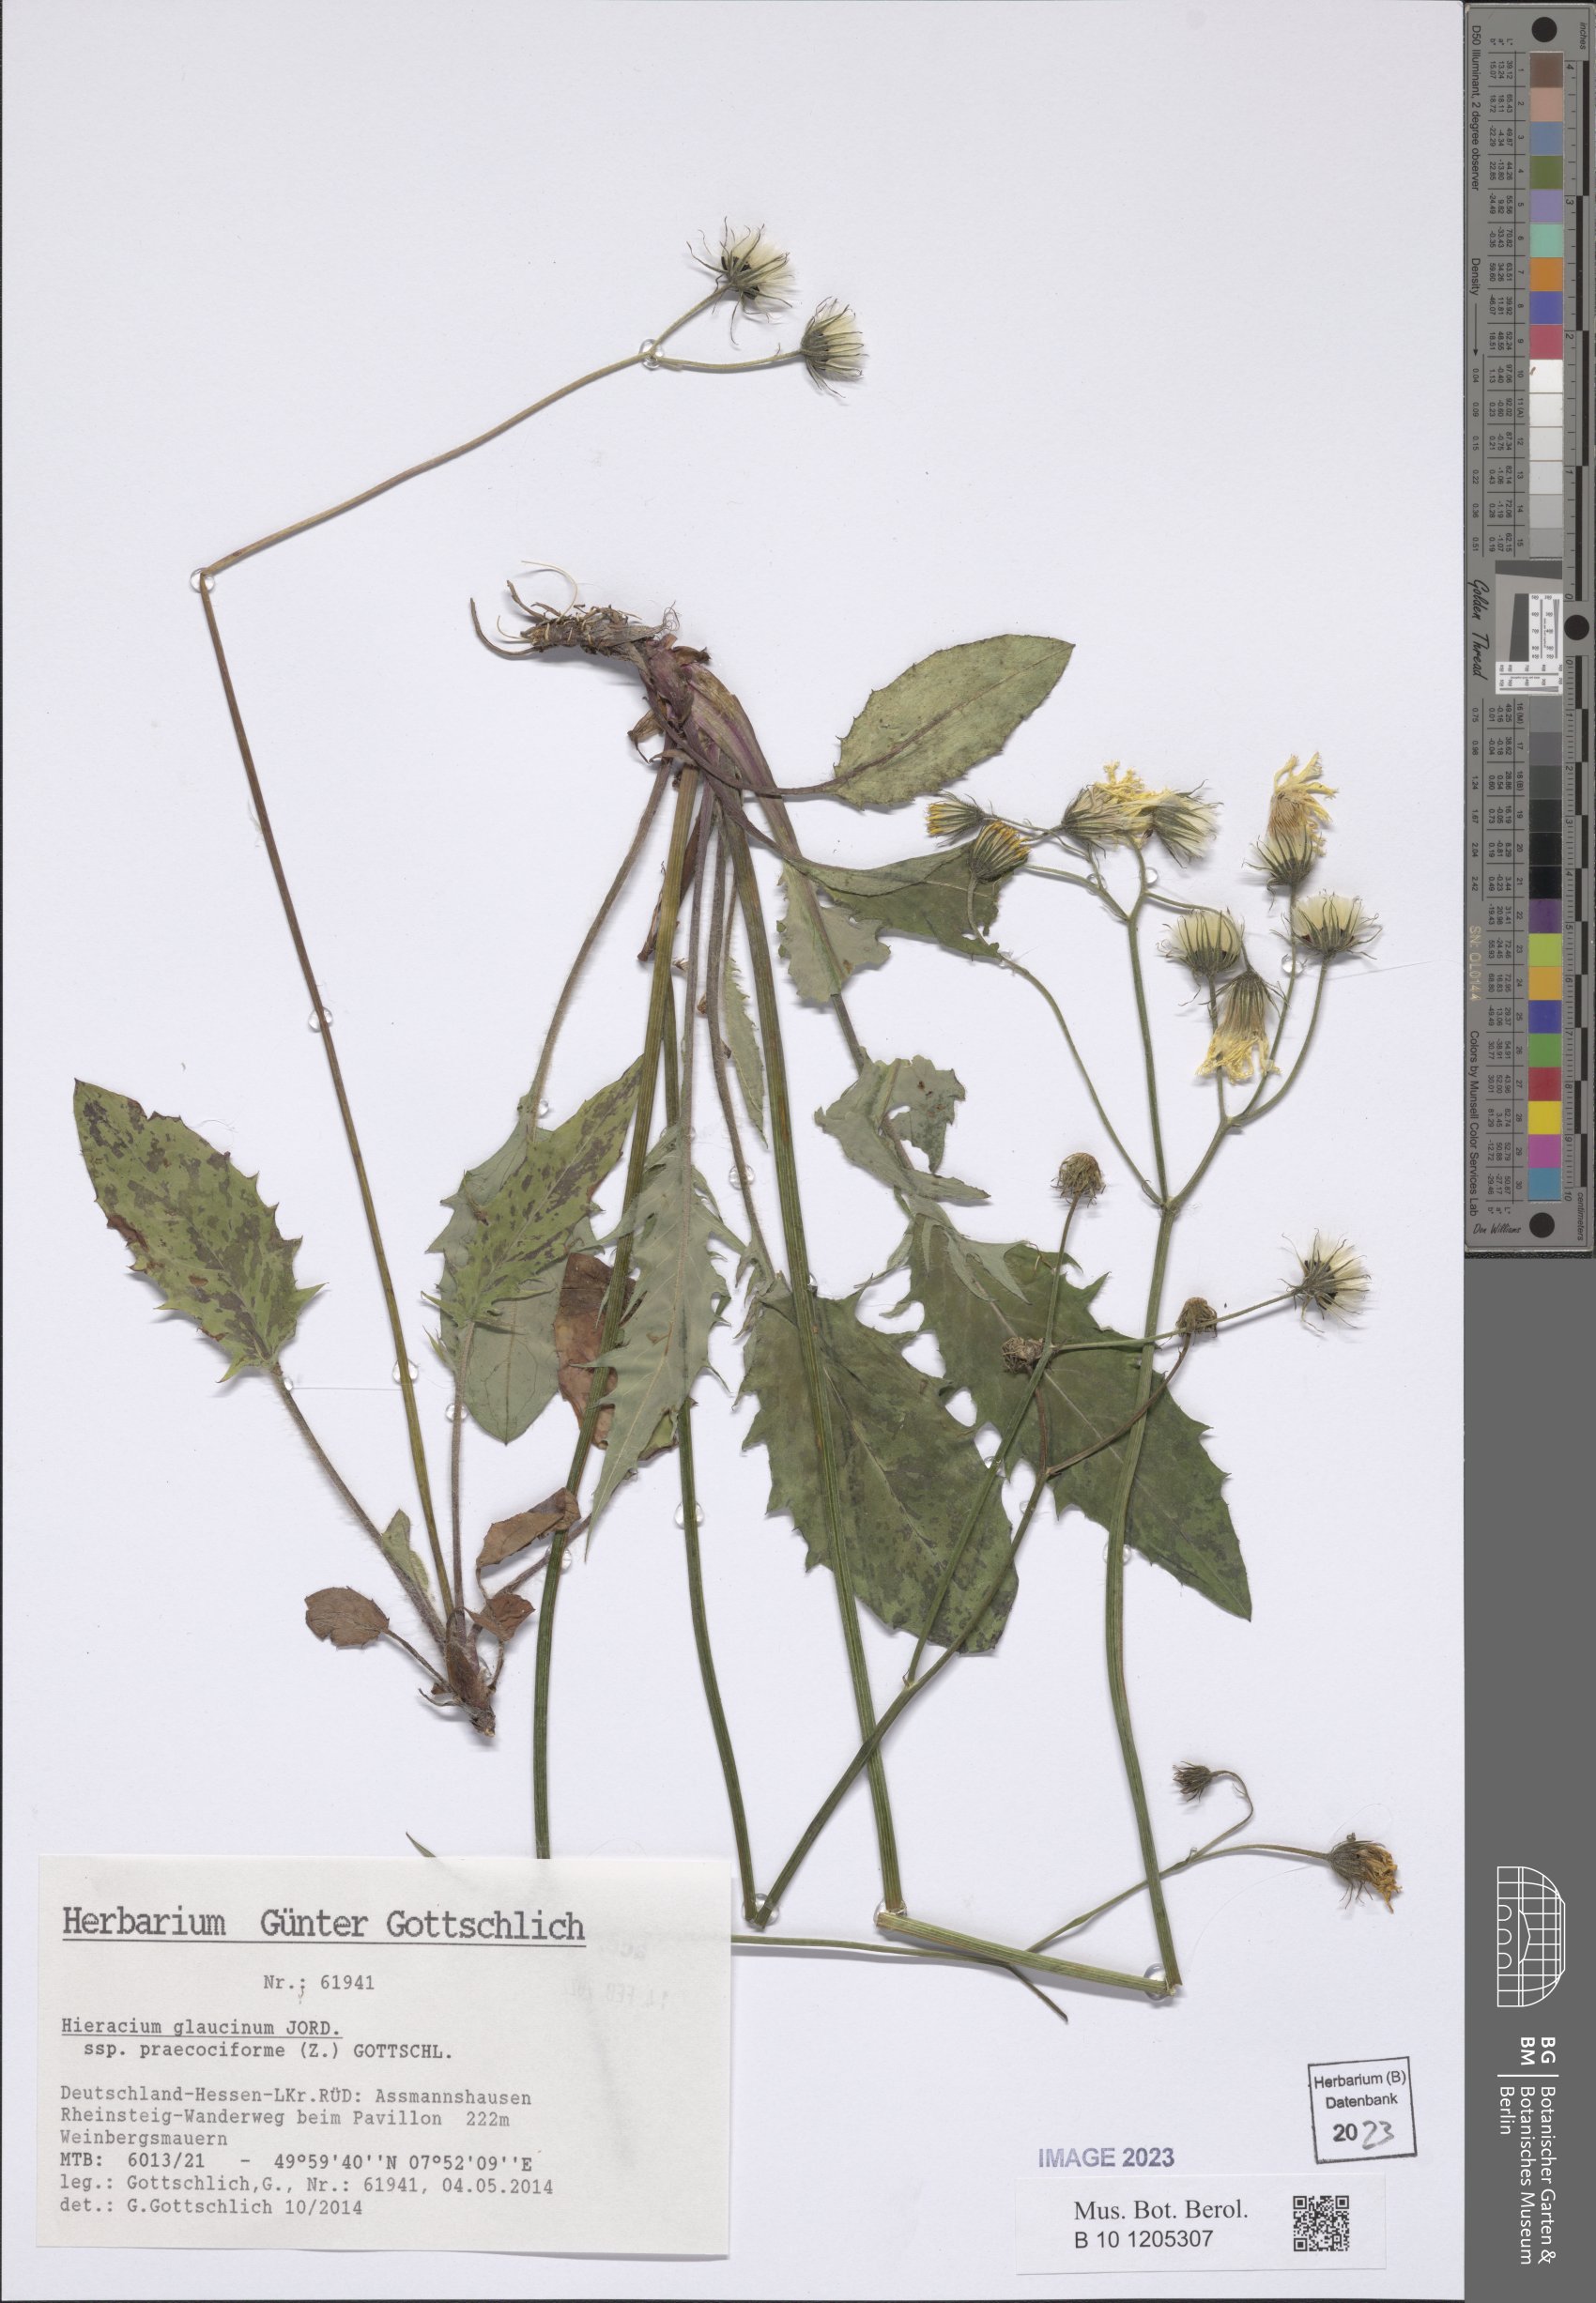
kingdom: Plantae
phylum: Tracheophyta
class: Magnoliopsida
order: Asterales
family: Asteraceae
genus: Hieracium
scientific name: Hieracium glaucinum
